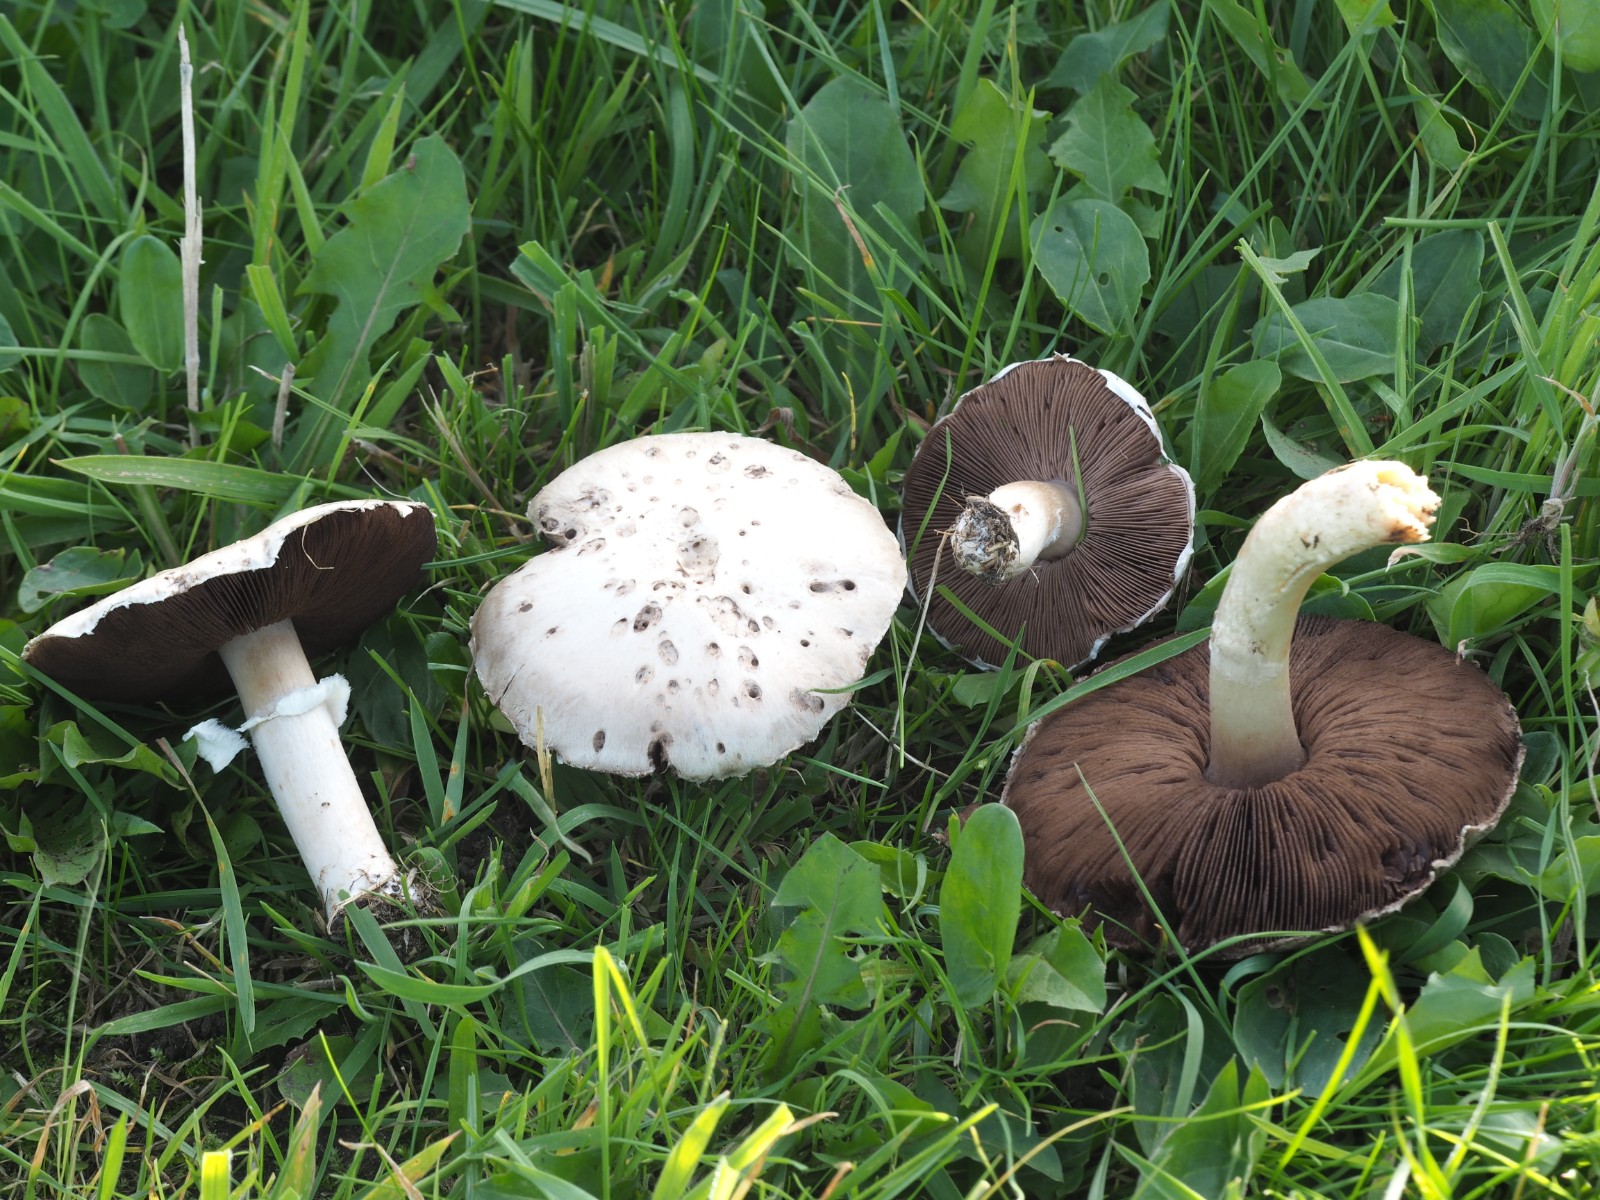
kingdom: Fungi
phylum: Basidiomycota
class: Agaricomycetes
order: Agaricales
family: Agaricaceae
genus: Agaricus
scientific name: Agaricus campestris
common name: mark-champignon
